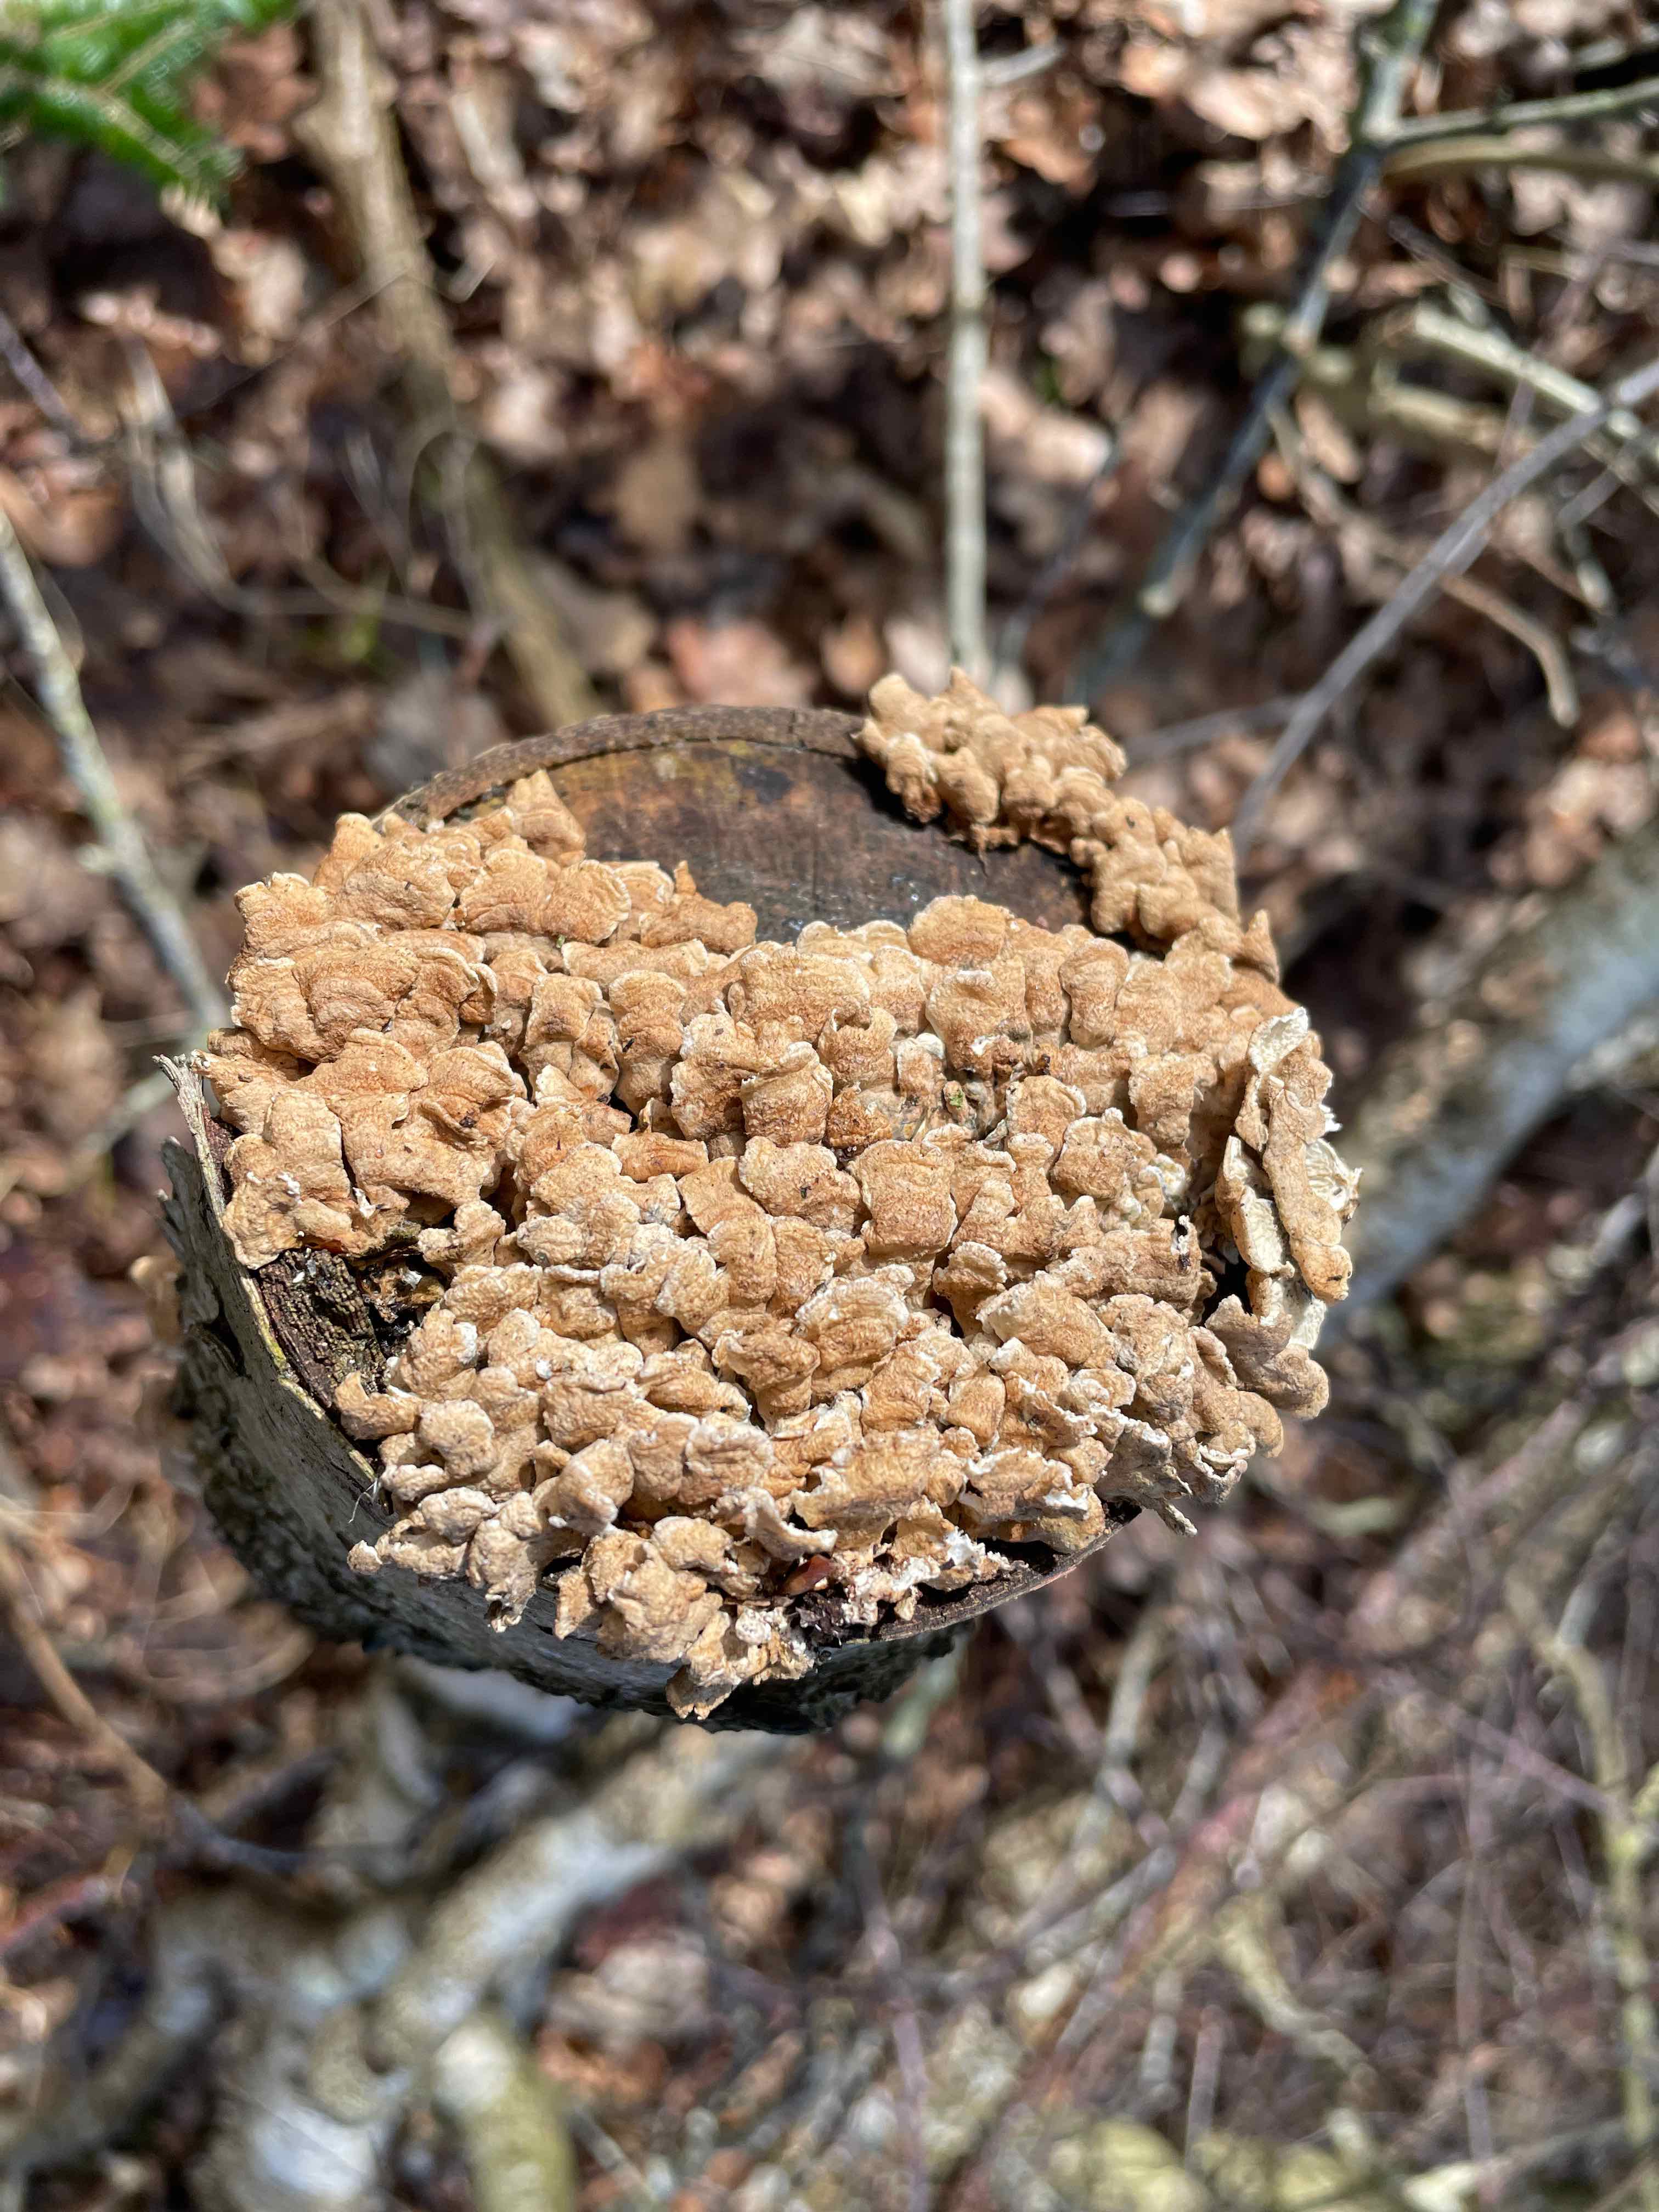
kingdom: Fungi
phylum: Basidiomycota
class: Agaricomycetes
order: Amylocorticiales
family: Amylocorticiaceae
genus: Plicaturopsis
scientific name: Plicaturopsis crispa
